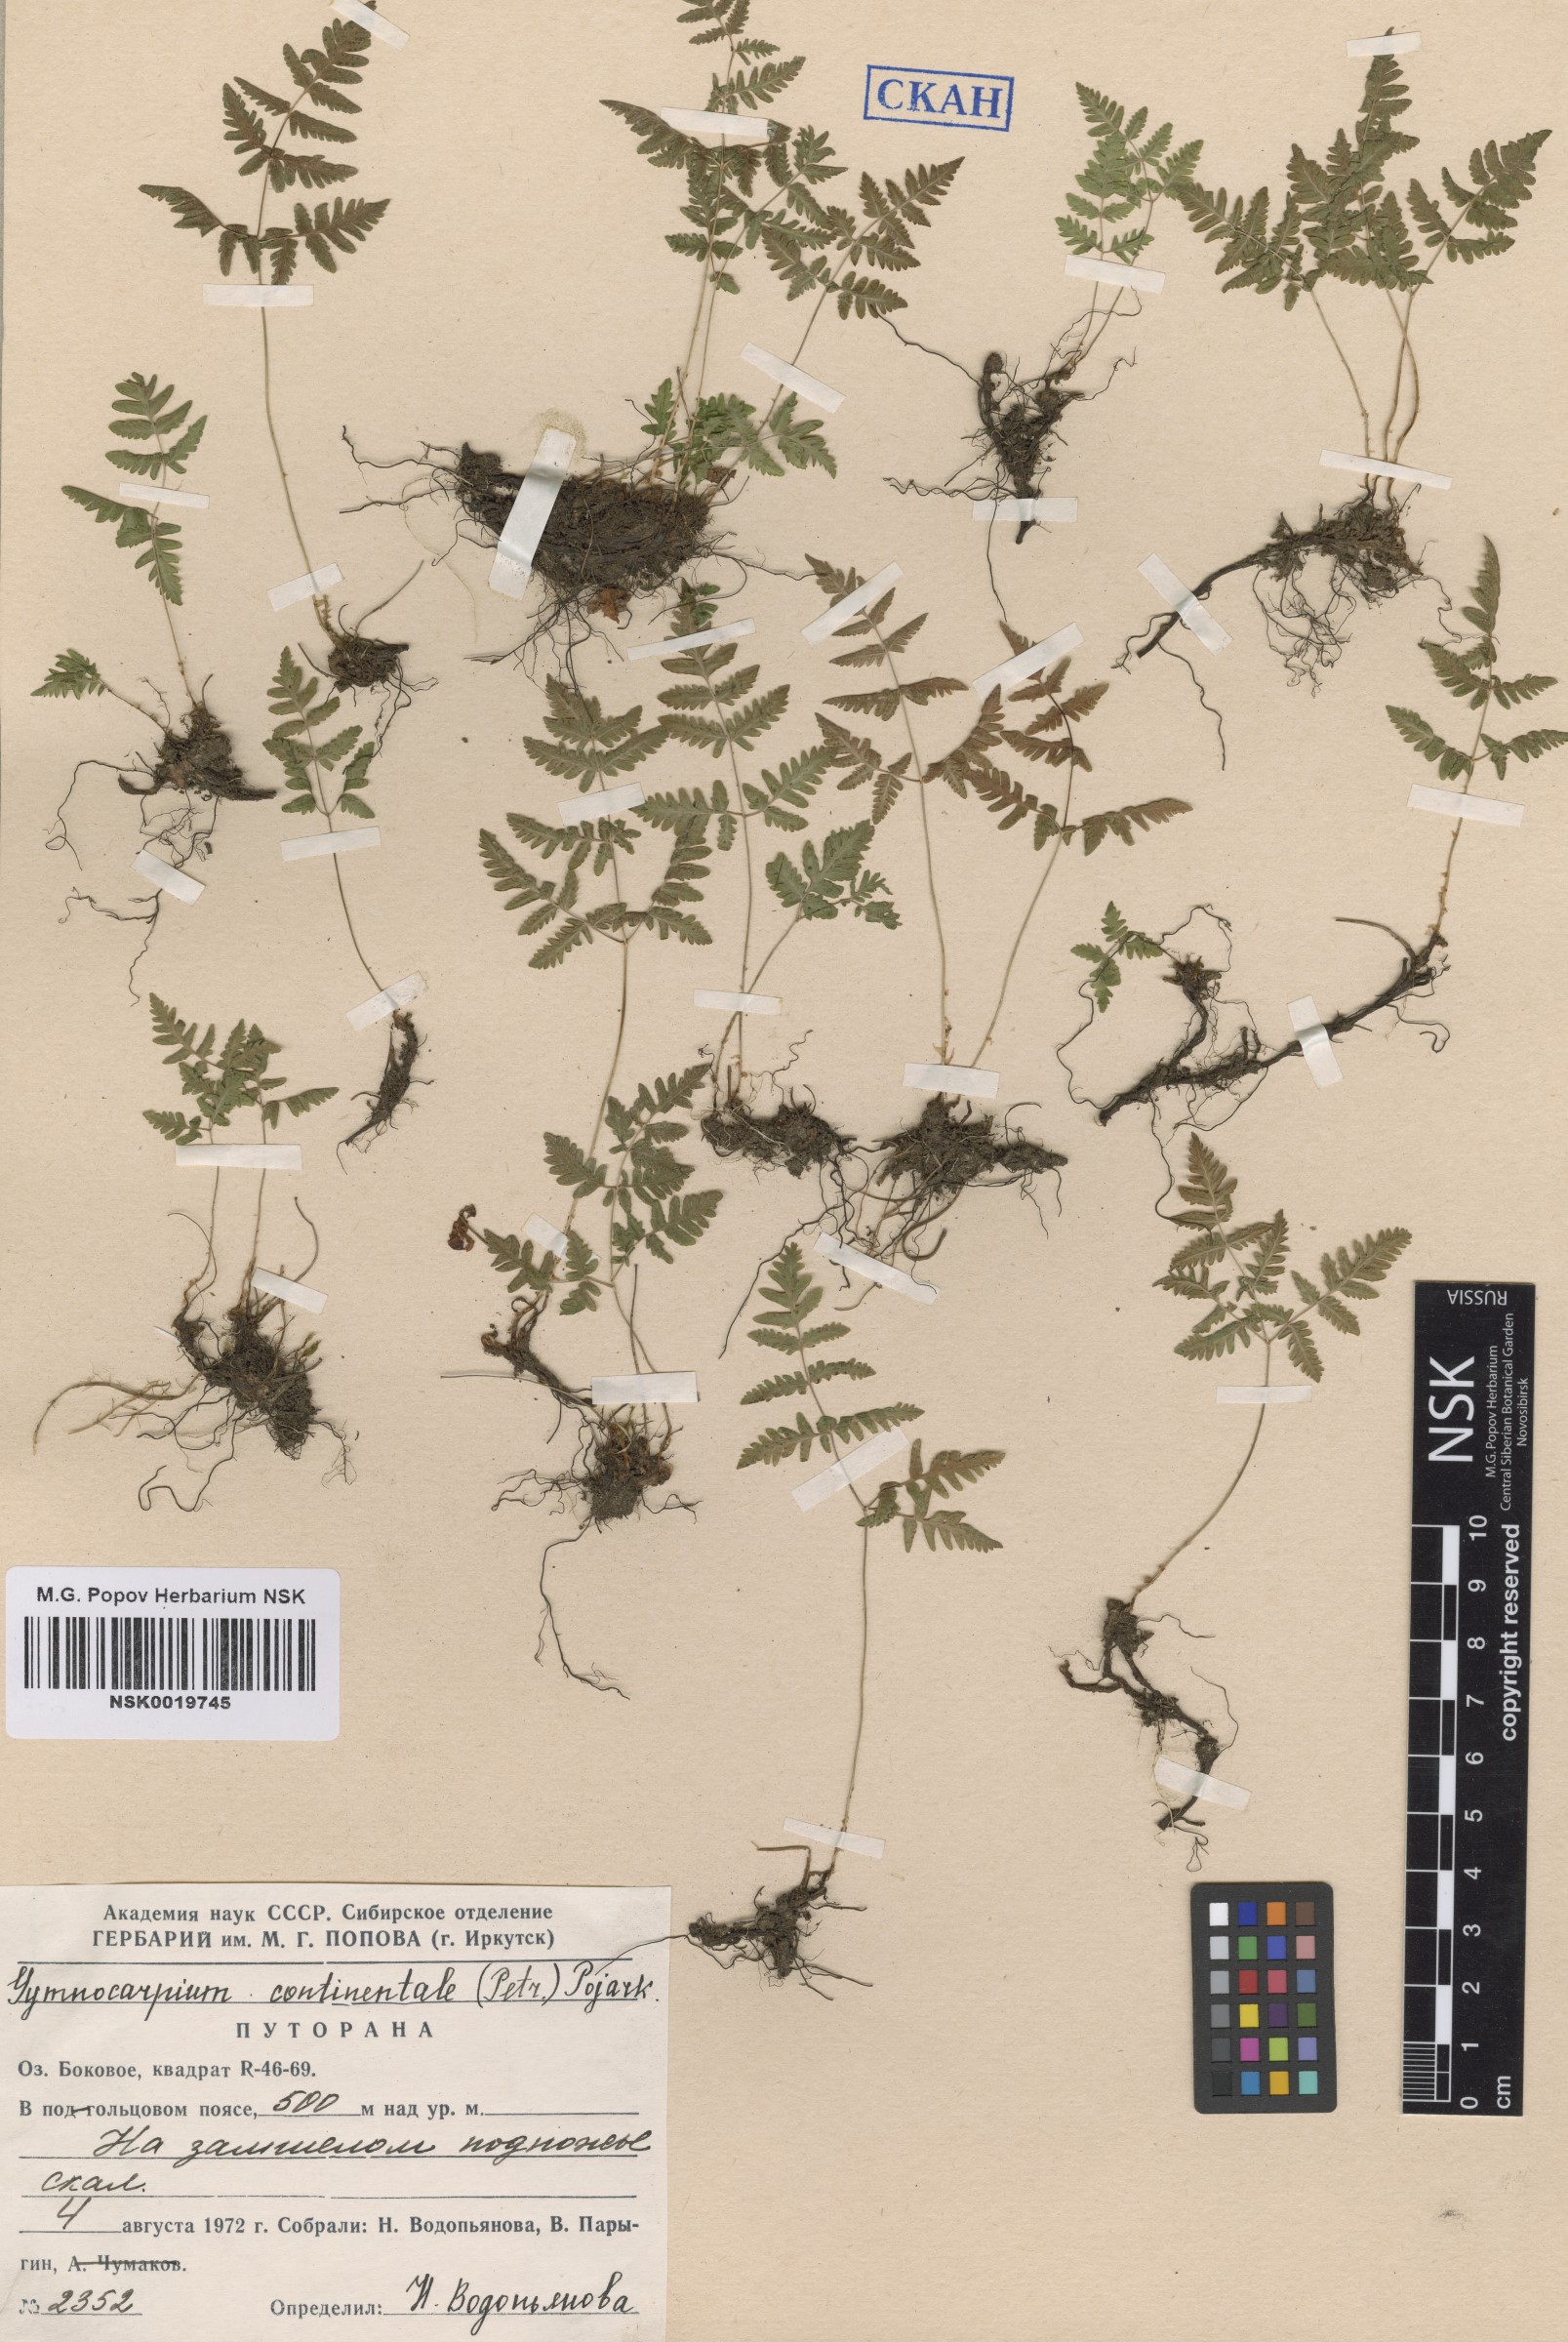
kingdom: Plantae
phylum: Tracheophyta
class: Polypodiopsida
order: Polypodiales
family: Cystopteridaceae
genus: Gymnocarpium
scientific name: Gymnocarpium continentale
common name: Asian oak fern
